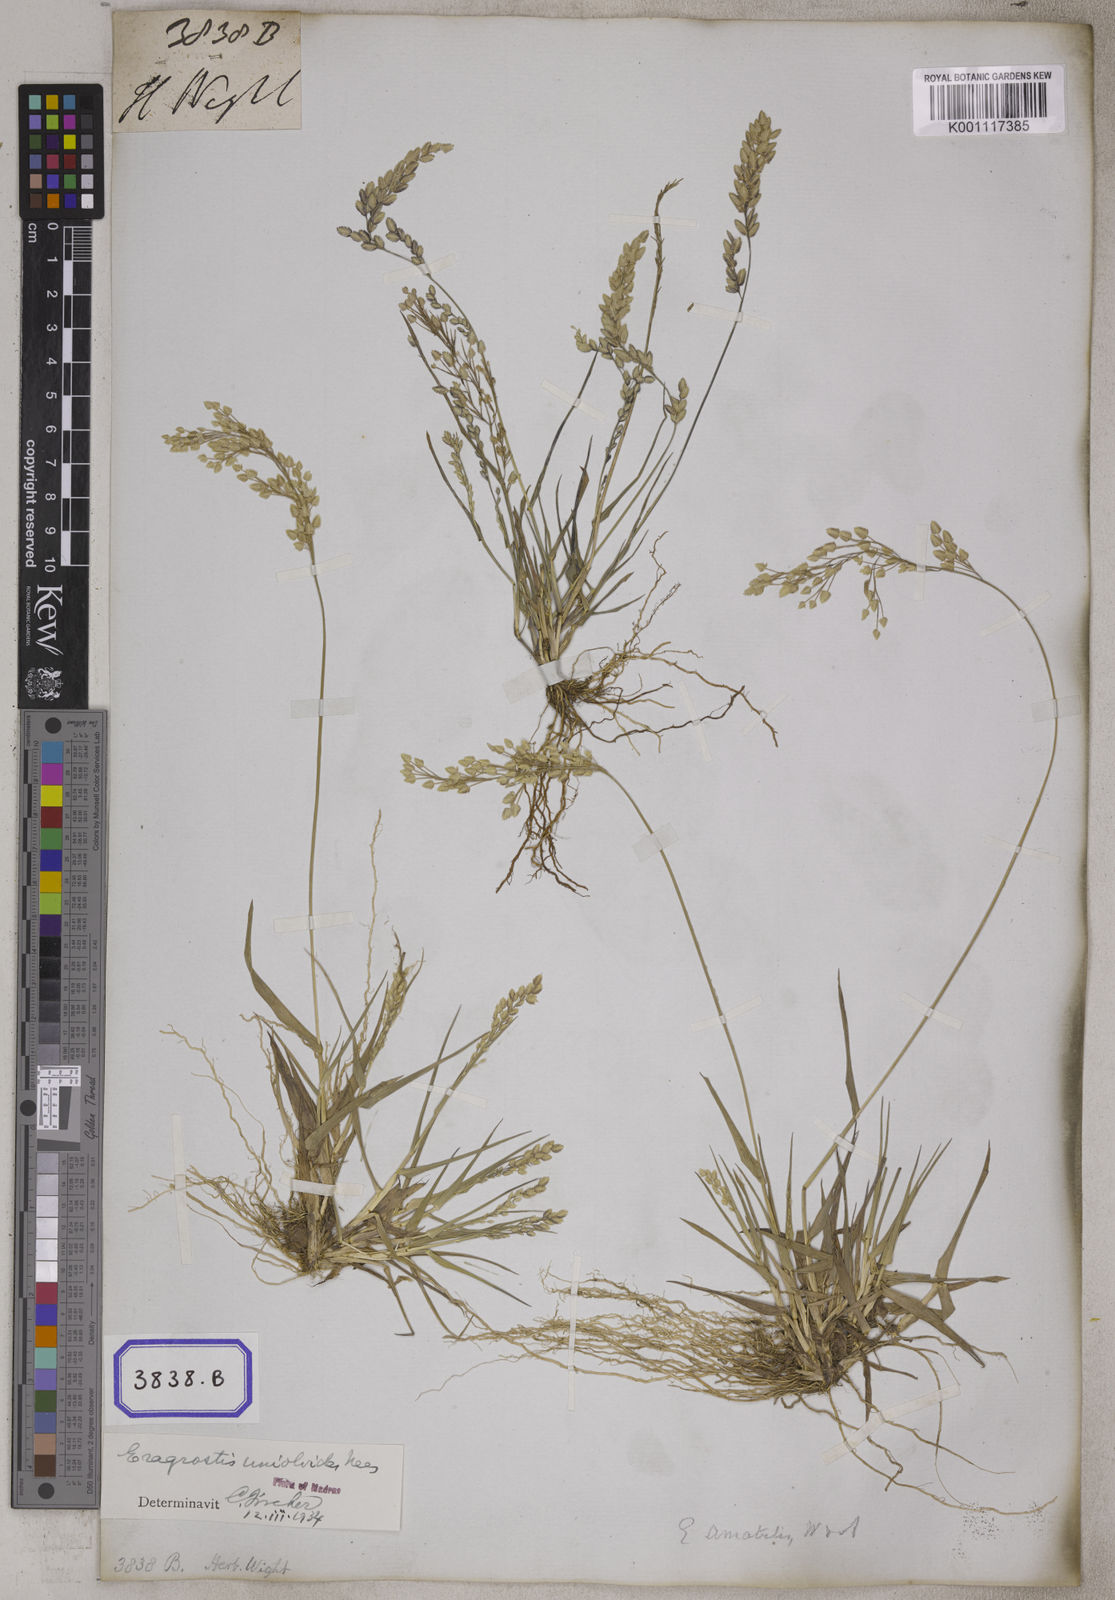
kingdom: Plantae
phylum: Tracheophyta
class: Liliopsida
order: Poales
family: Poaceae
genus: Eragrostis
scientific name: Eragrostis
